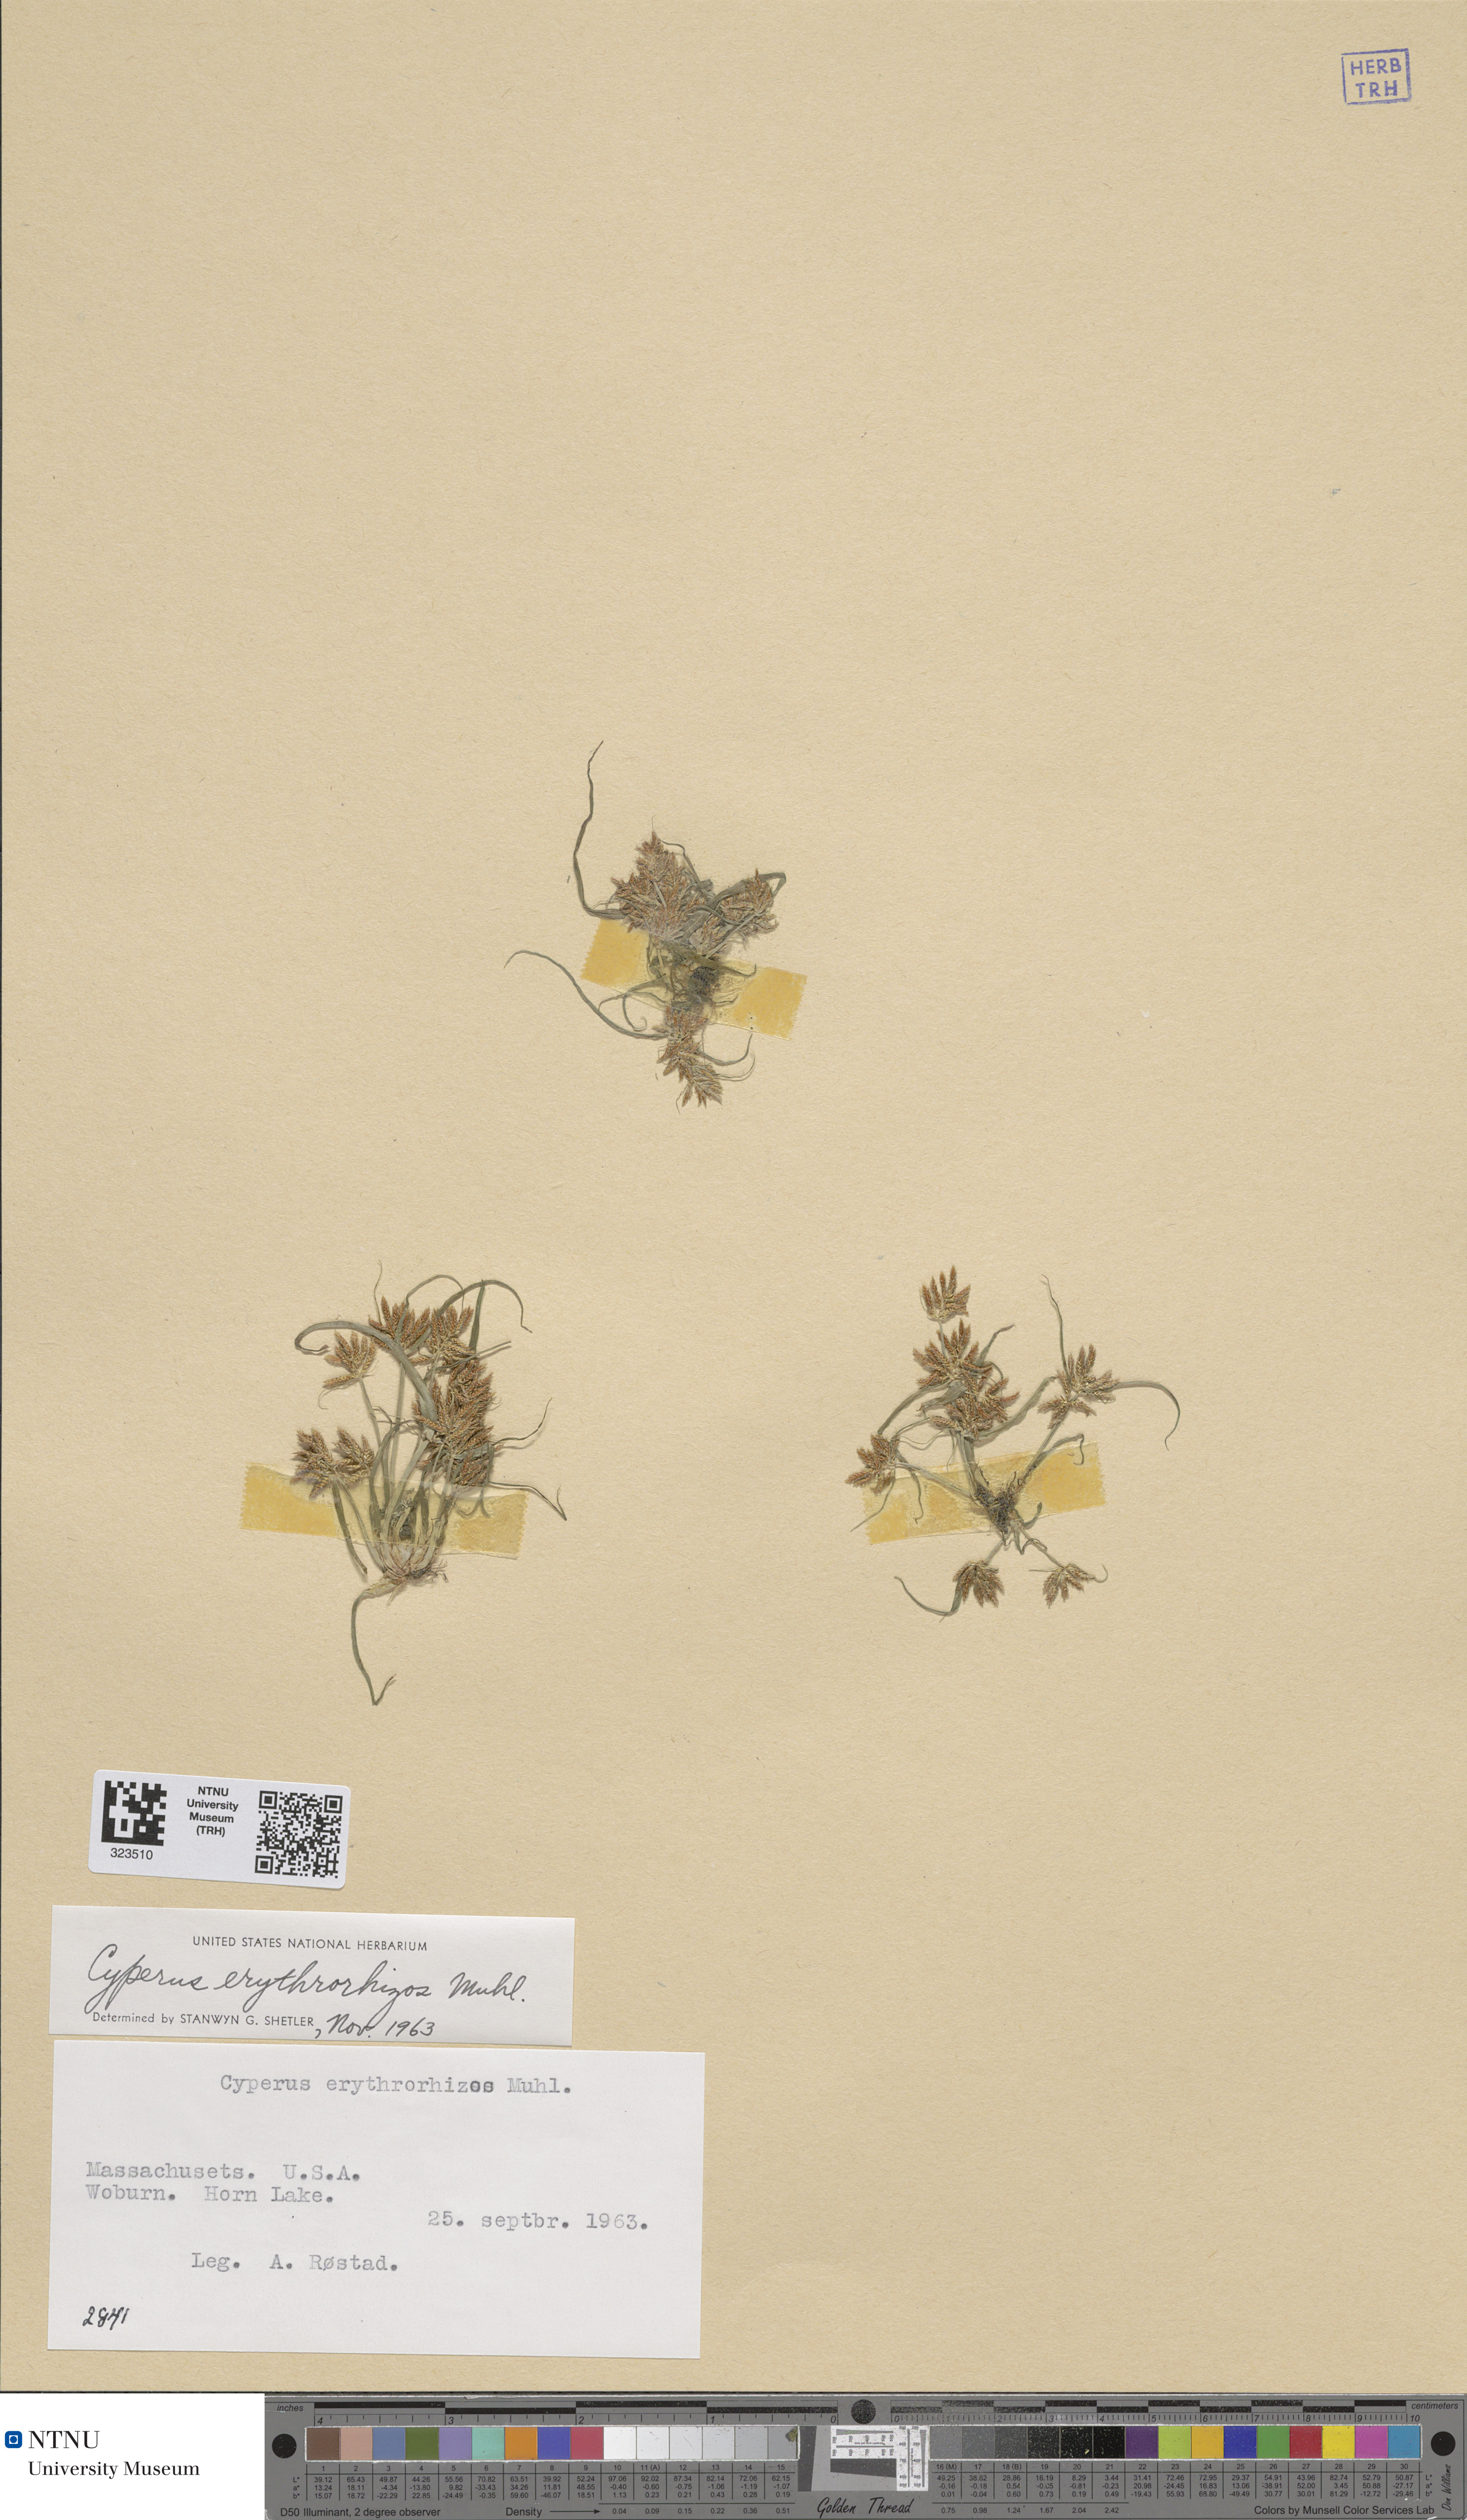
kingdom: Plantae
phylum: Tracheophyta
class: Liliopsida
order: Poales
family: Cyperaceae
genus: Cyperus
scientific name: Cyperus erythrorhizos
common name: Red-root flat sedge
